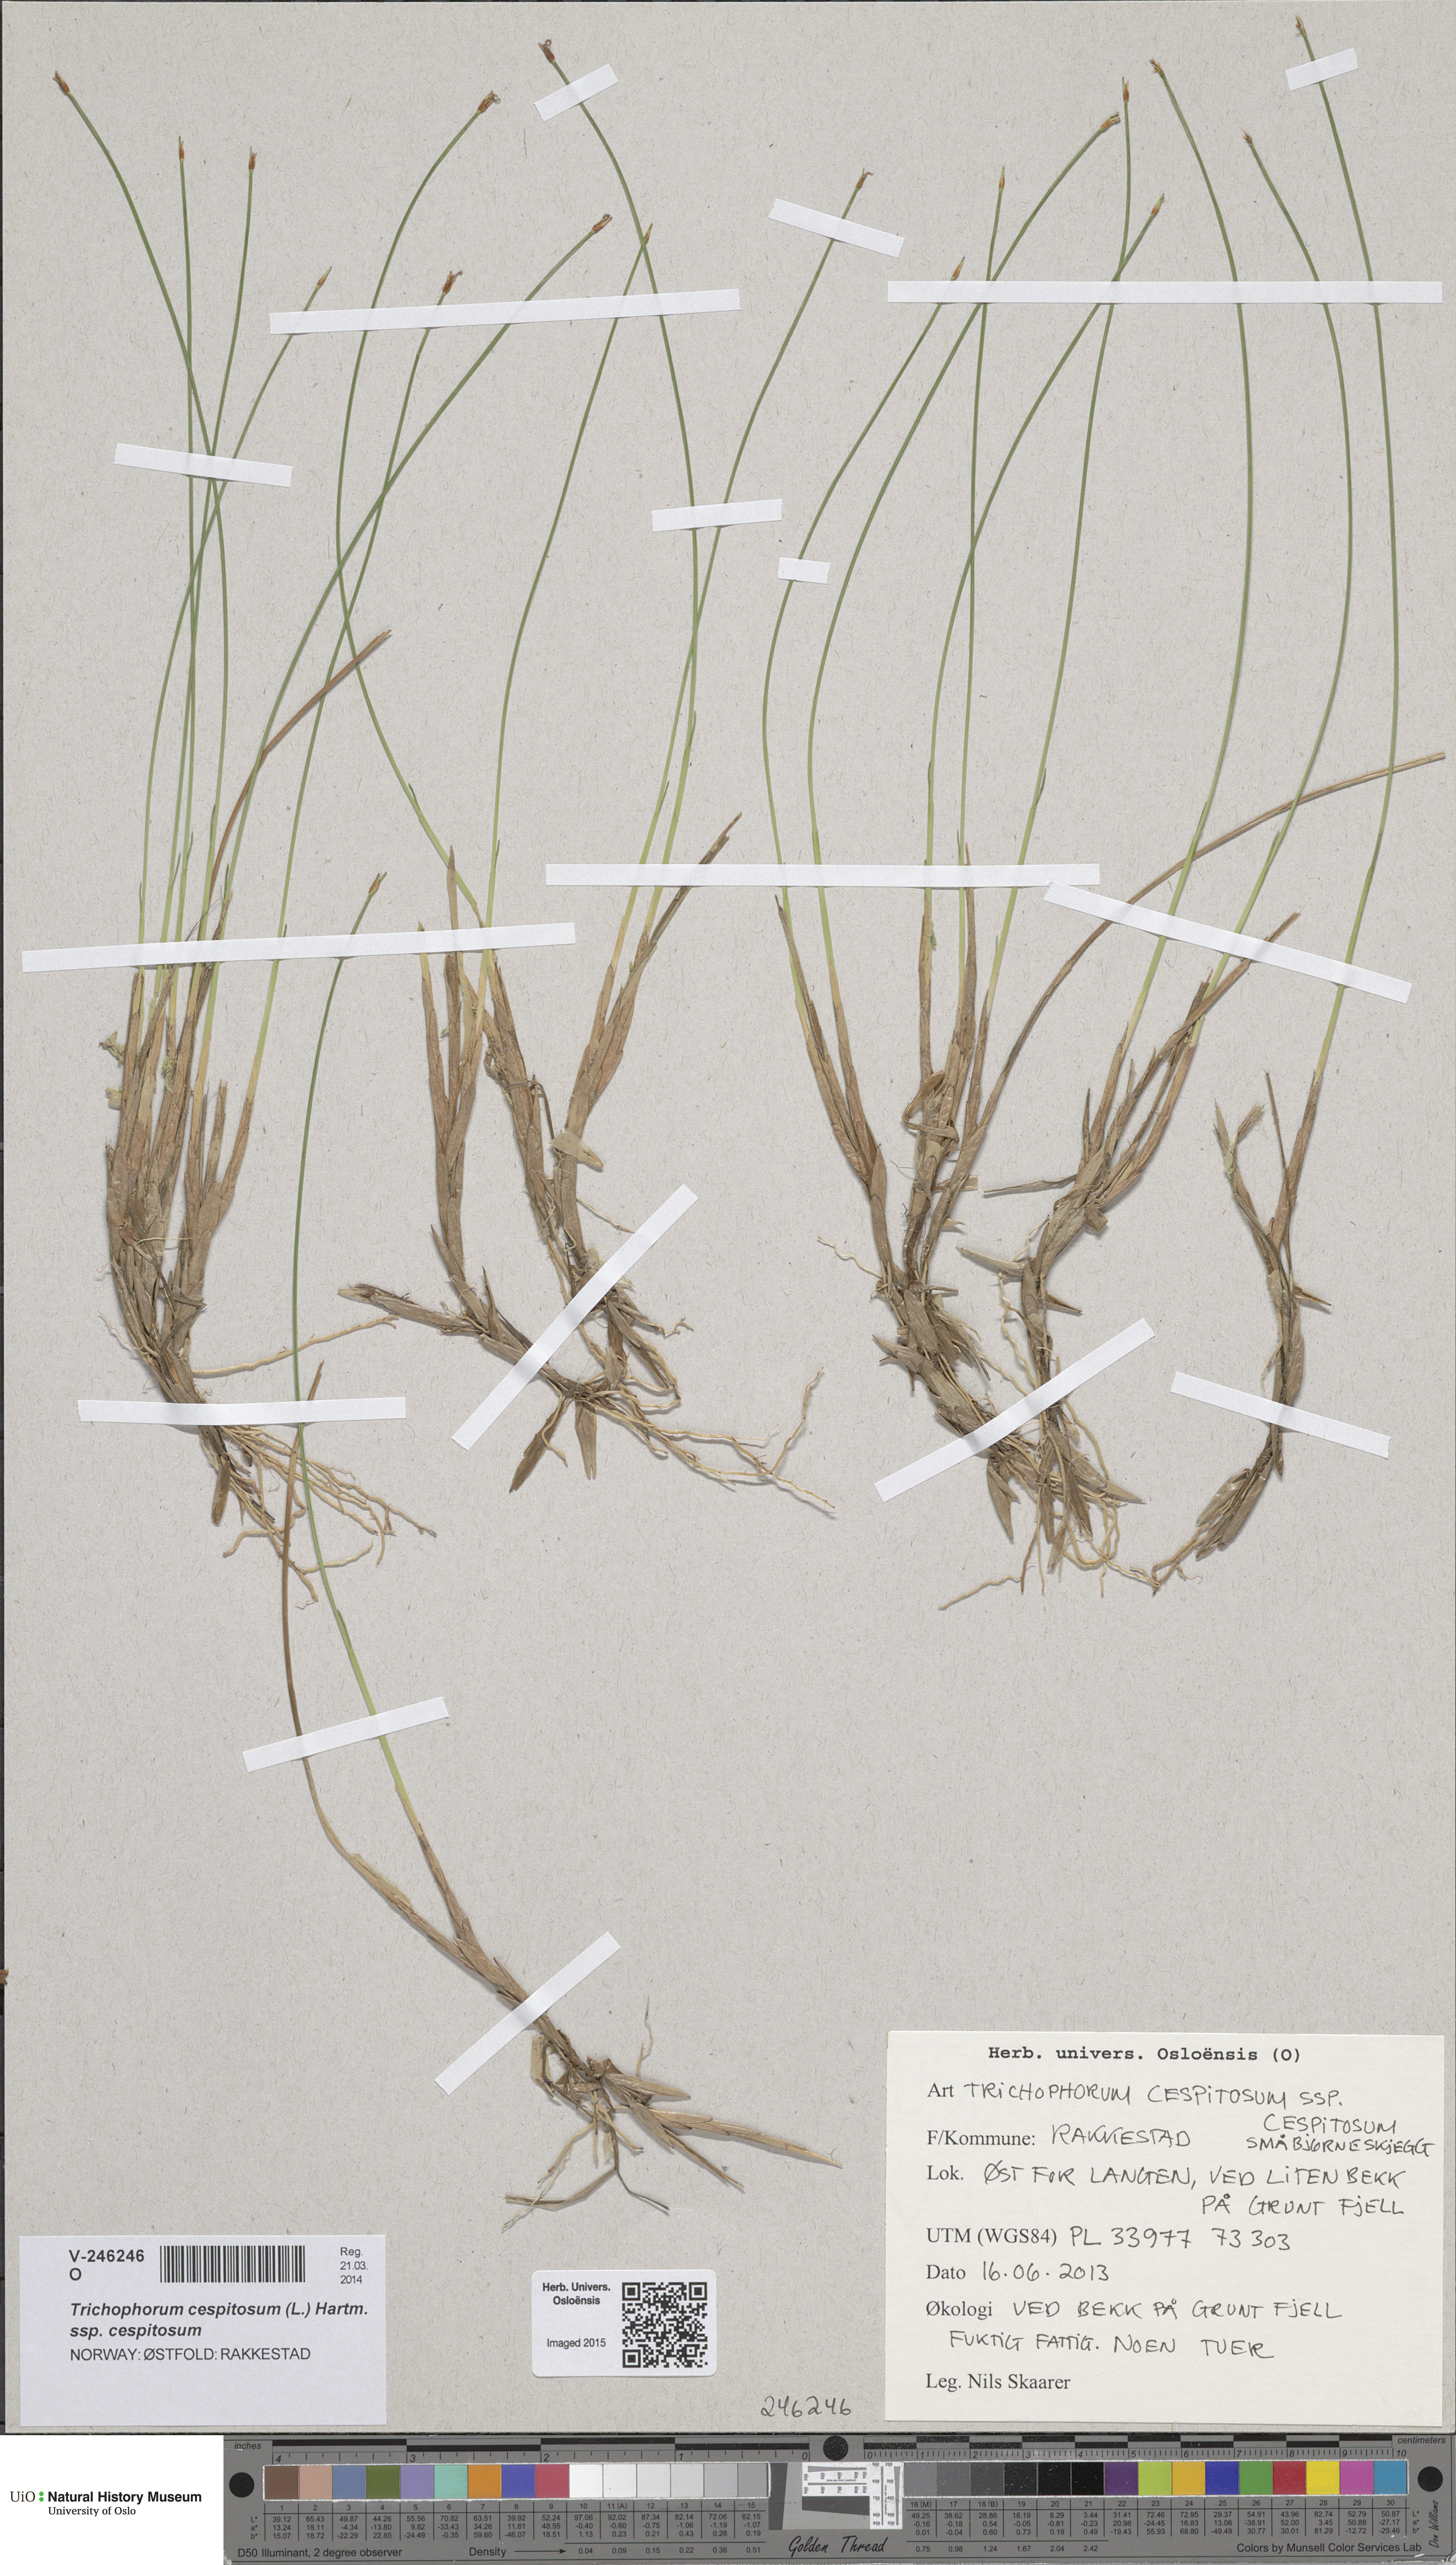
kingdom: Plantae
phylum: Tracheophyta
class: Liliopsida
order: Poales
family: Cyperaceae
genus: Trichophorum
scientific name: Trichophorum cespitosum
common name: Cespitose bulrush
